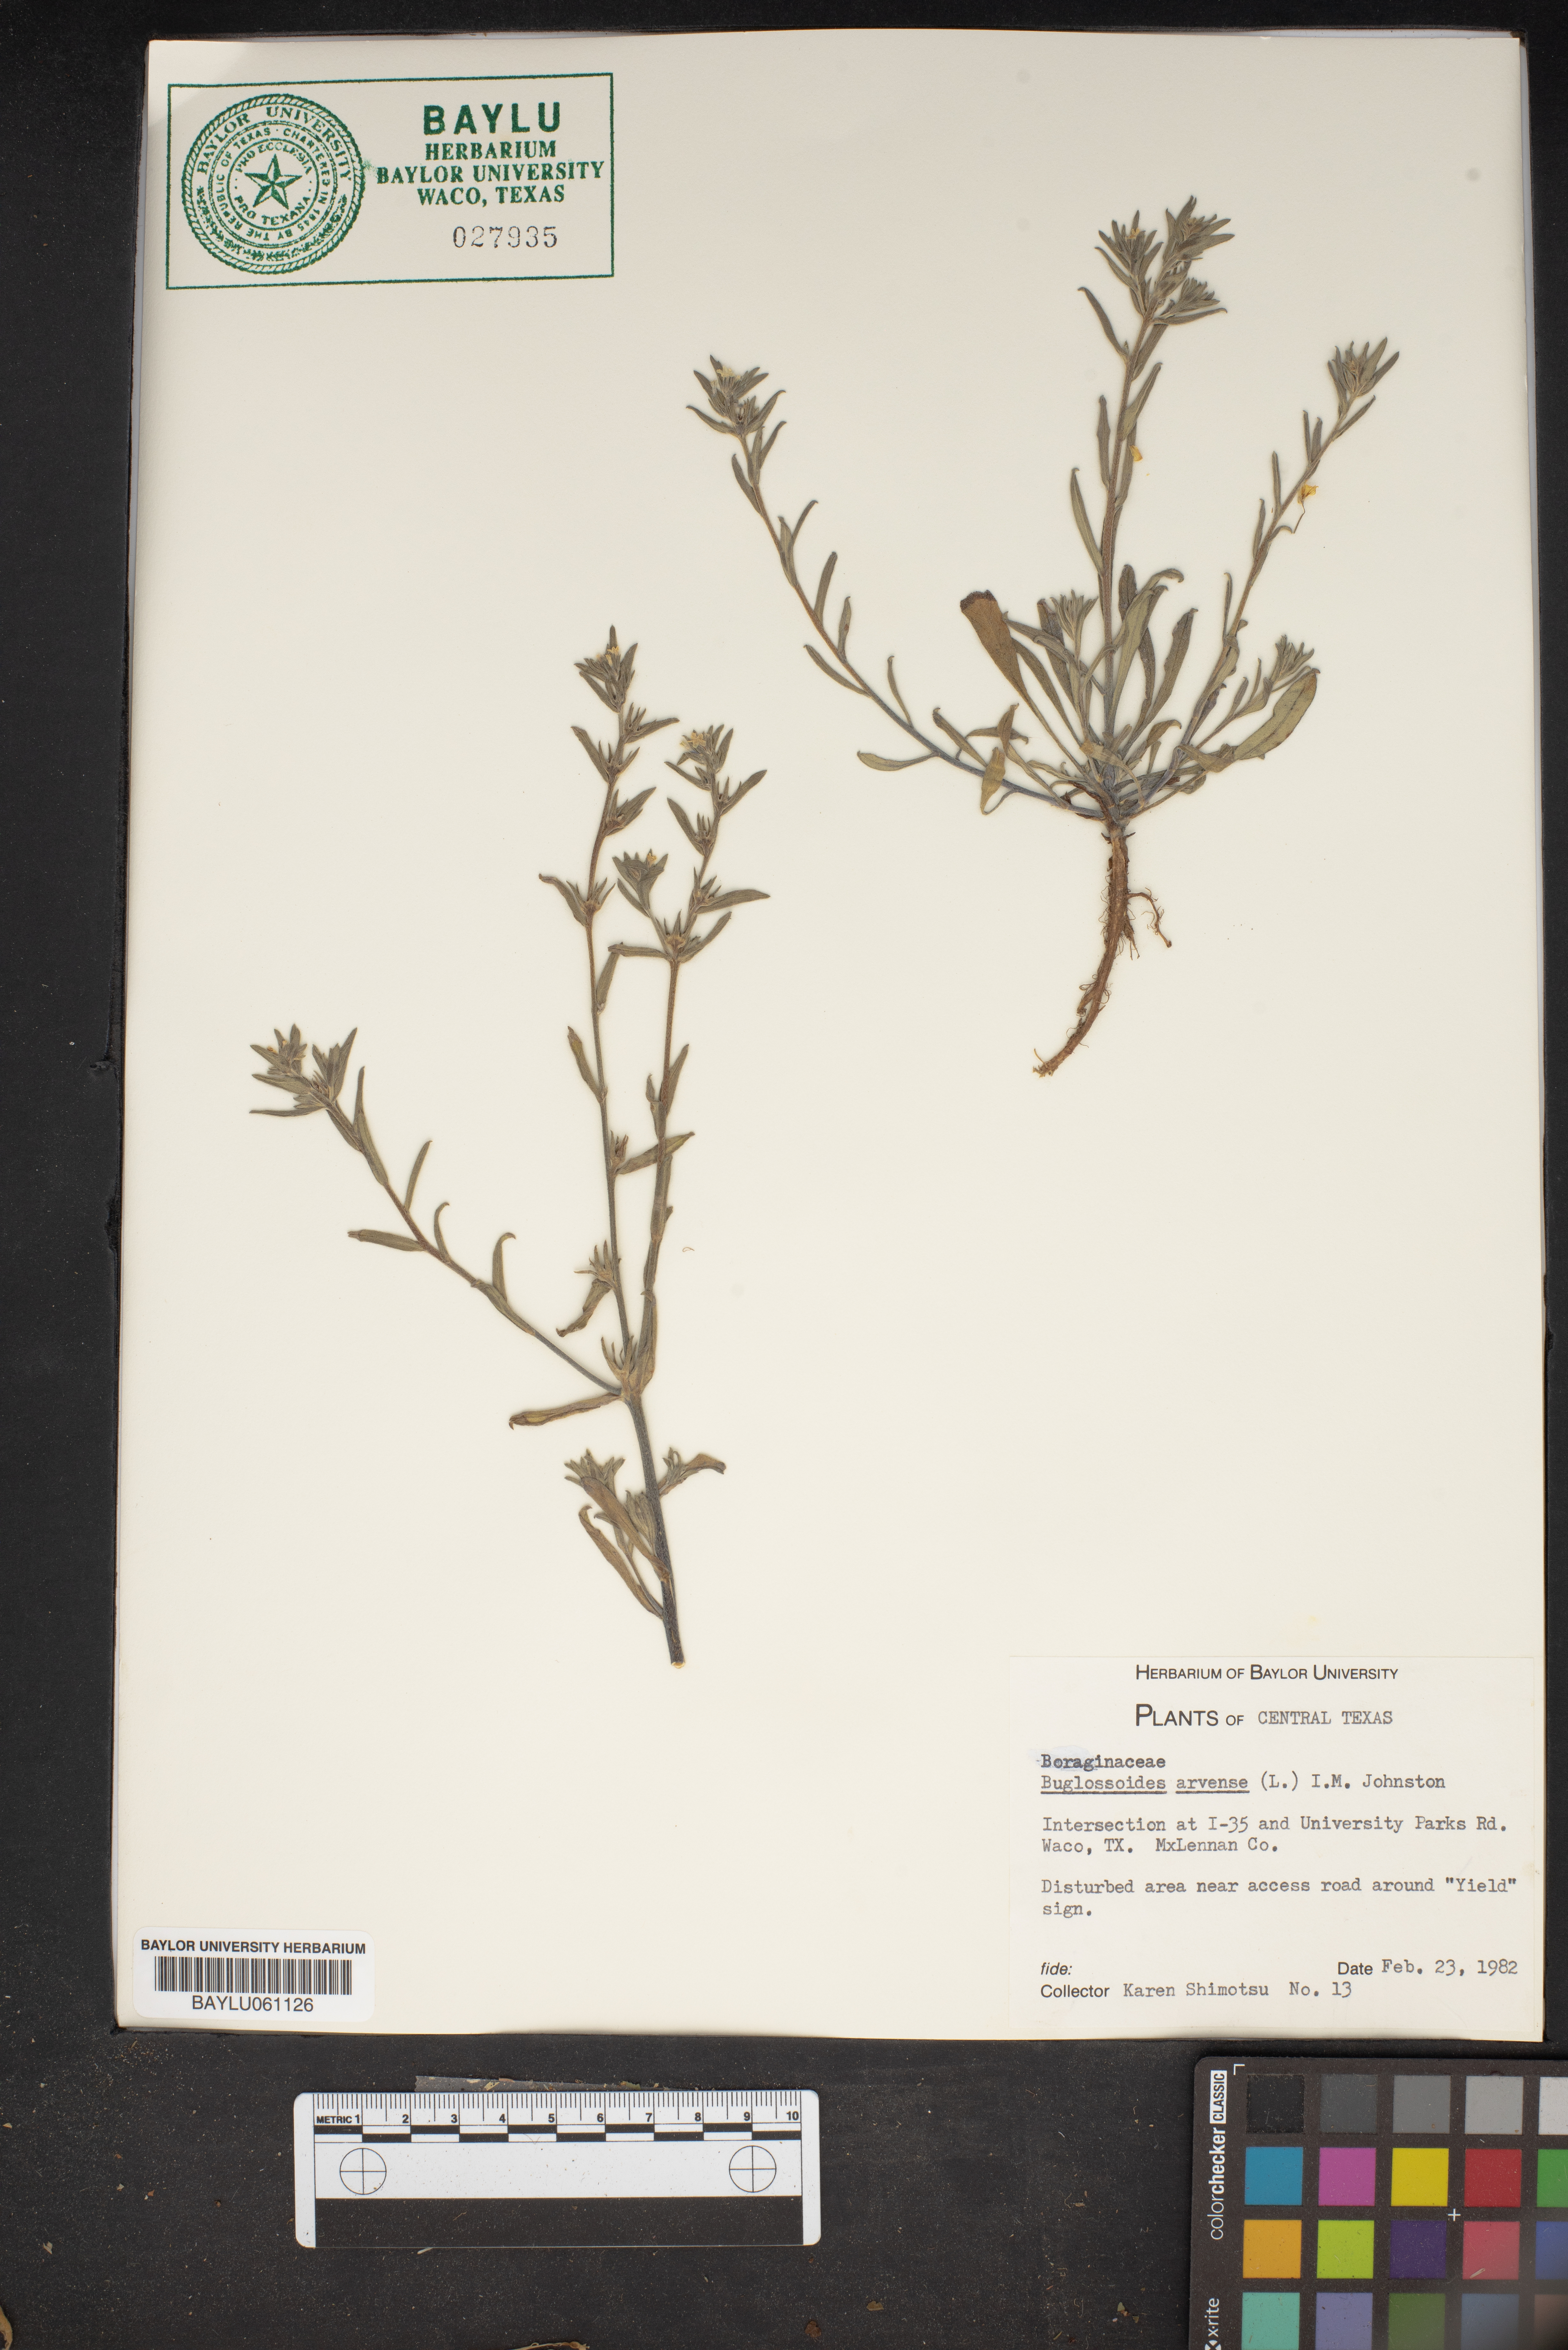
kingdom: Plantae
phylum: Tracheophyta
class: Magnoliopsida
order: Boraginales
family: Boraginaceae
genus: Buglossoides
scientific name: Buglossoides arvensis
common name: Corn gromwell
